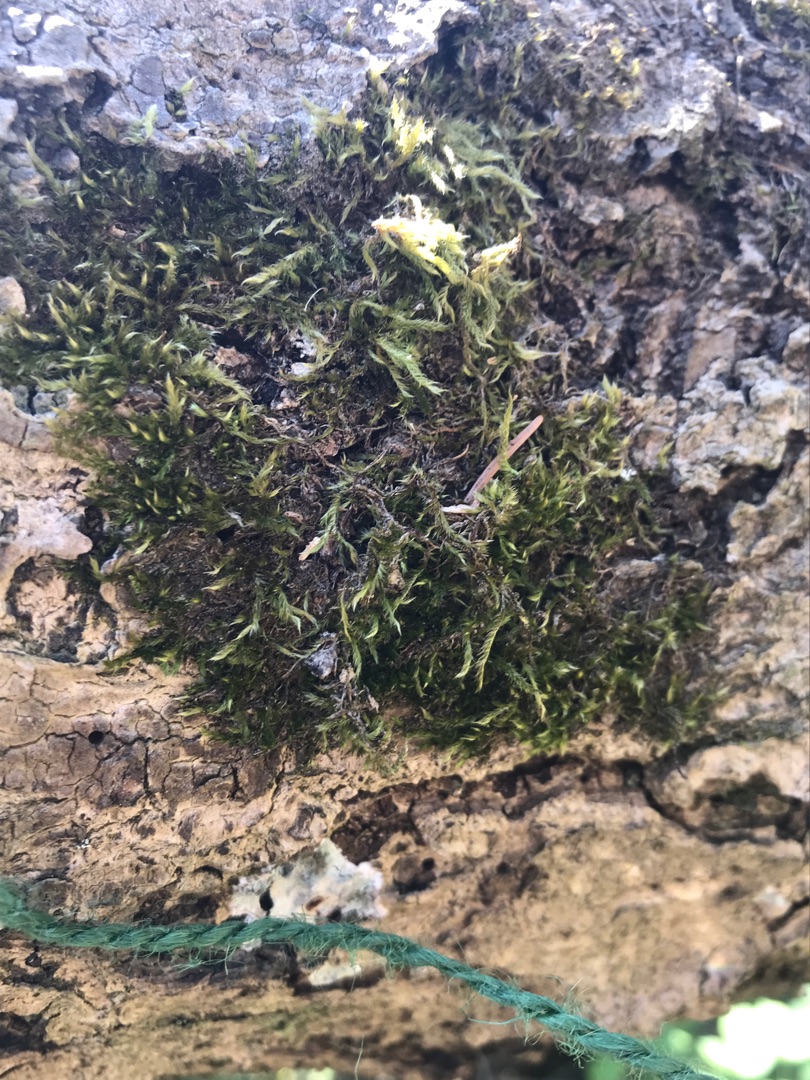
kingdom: Plantae
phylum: Bryophyta
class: Bryopsida
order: Hypnales
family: Hypnaceae
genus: Hypnum
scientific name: Hypnum
